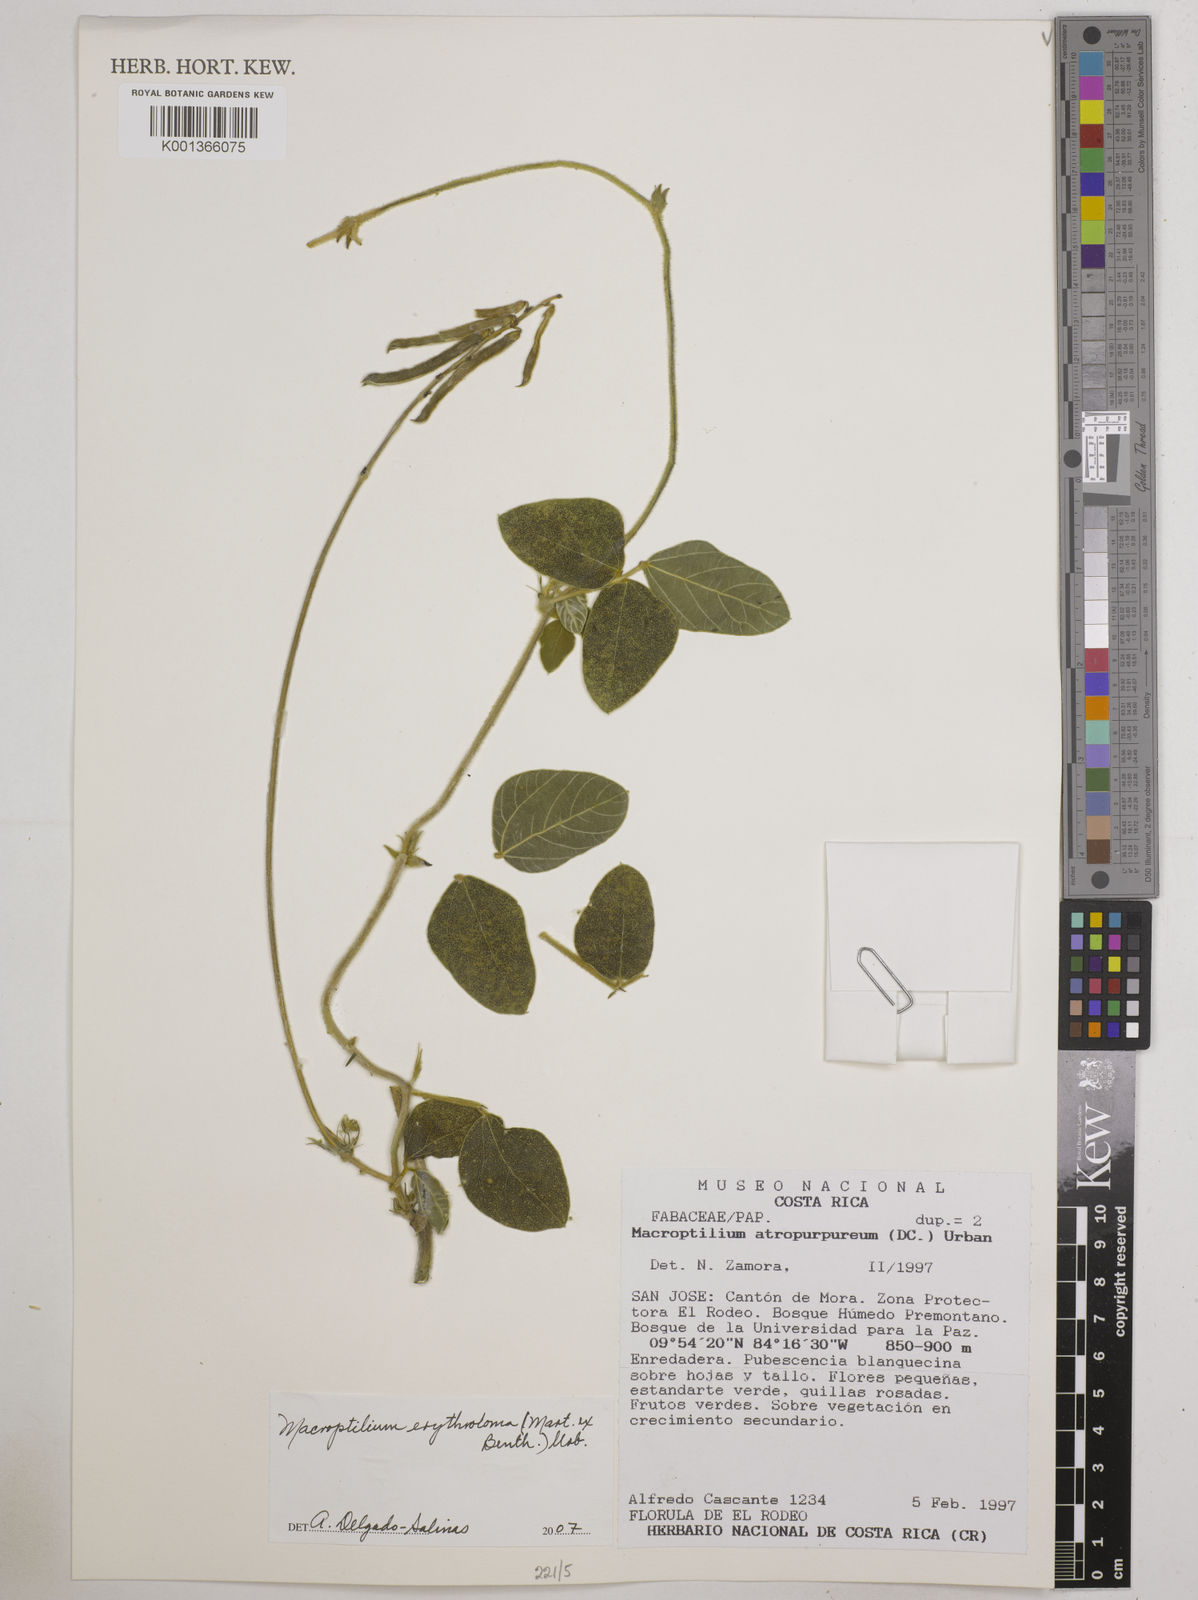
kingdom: Plantae
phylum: Tracheophyta
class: Magnoliopsida
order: Fabales
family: Fabaceae
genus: Macroptilium
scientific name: Macroptilium erythroloma
